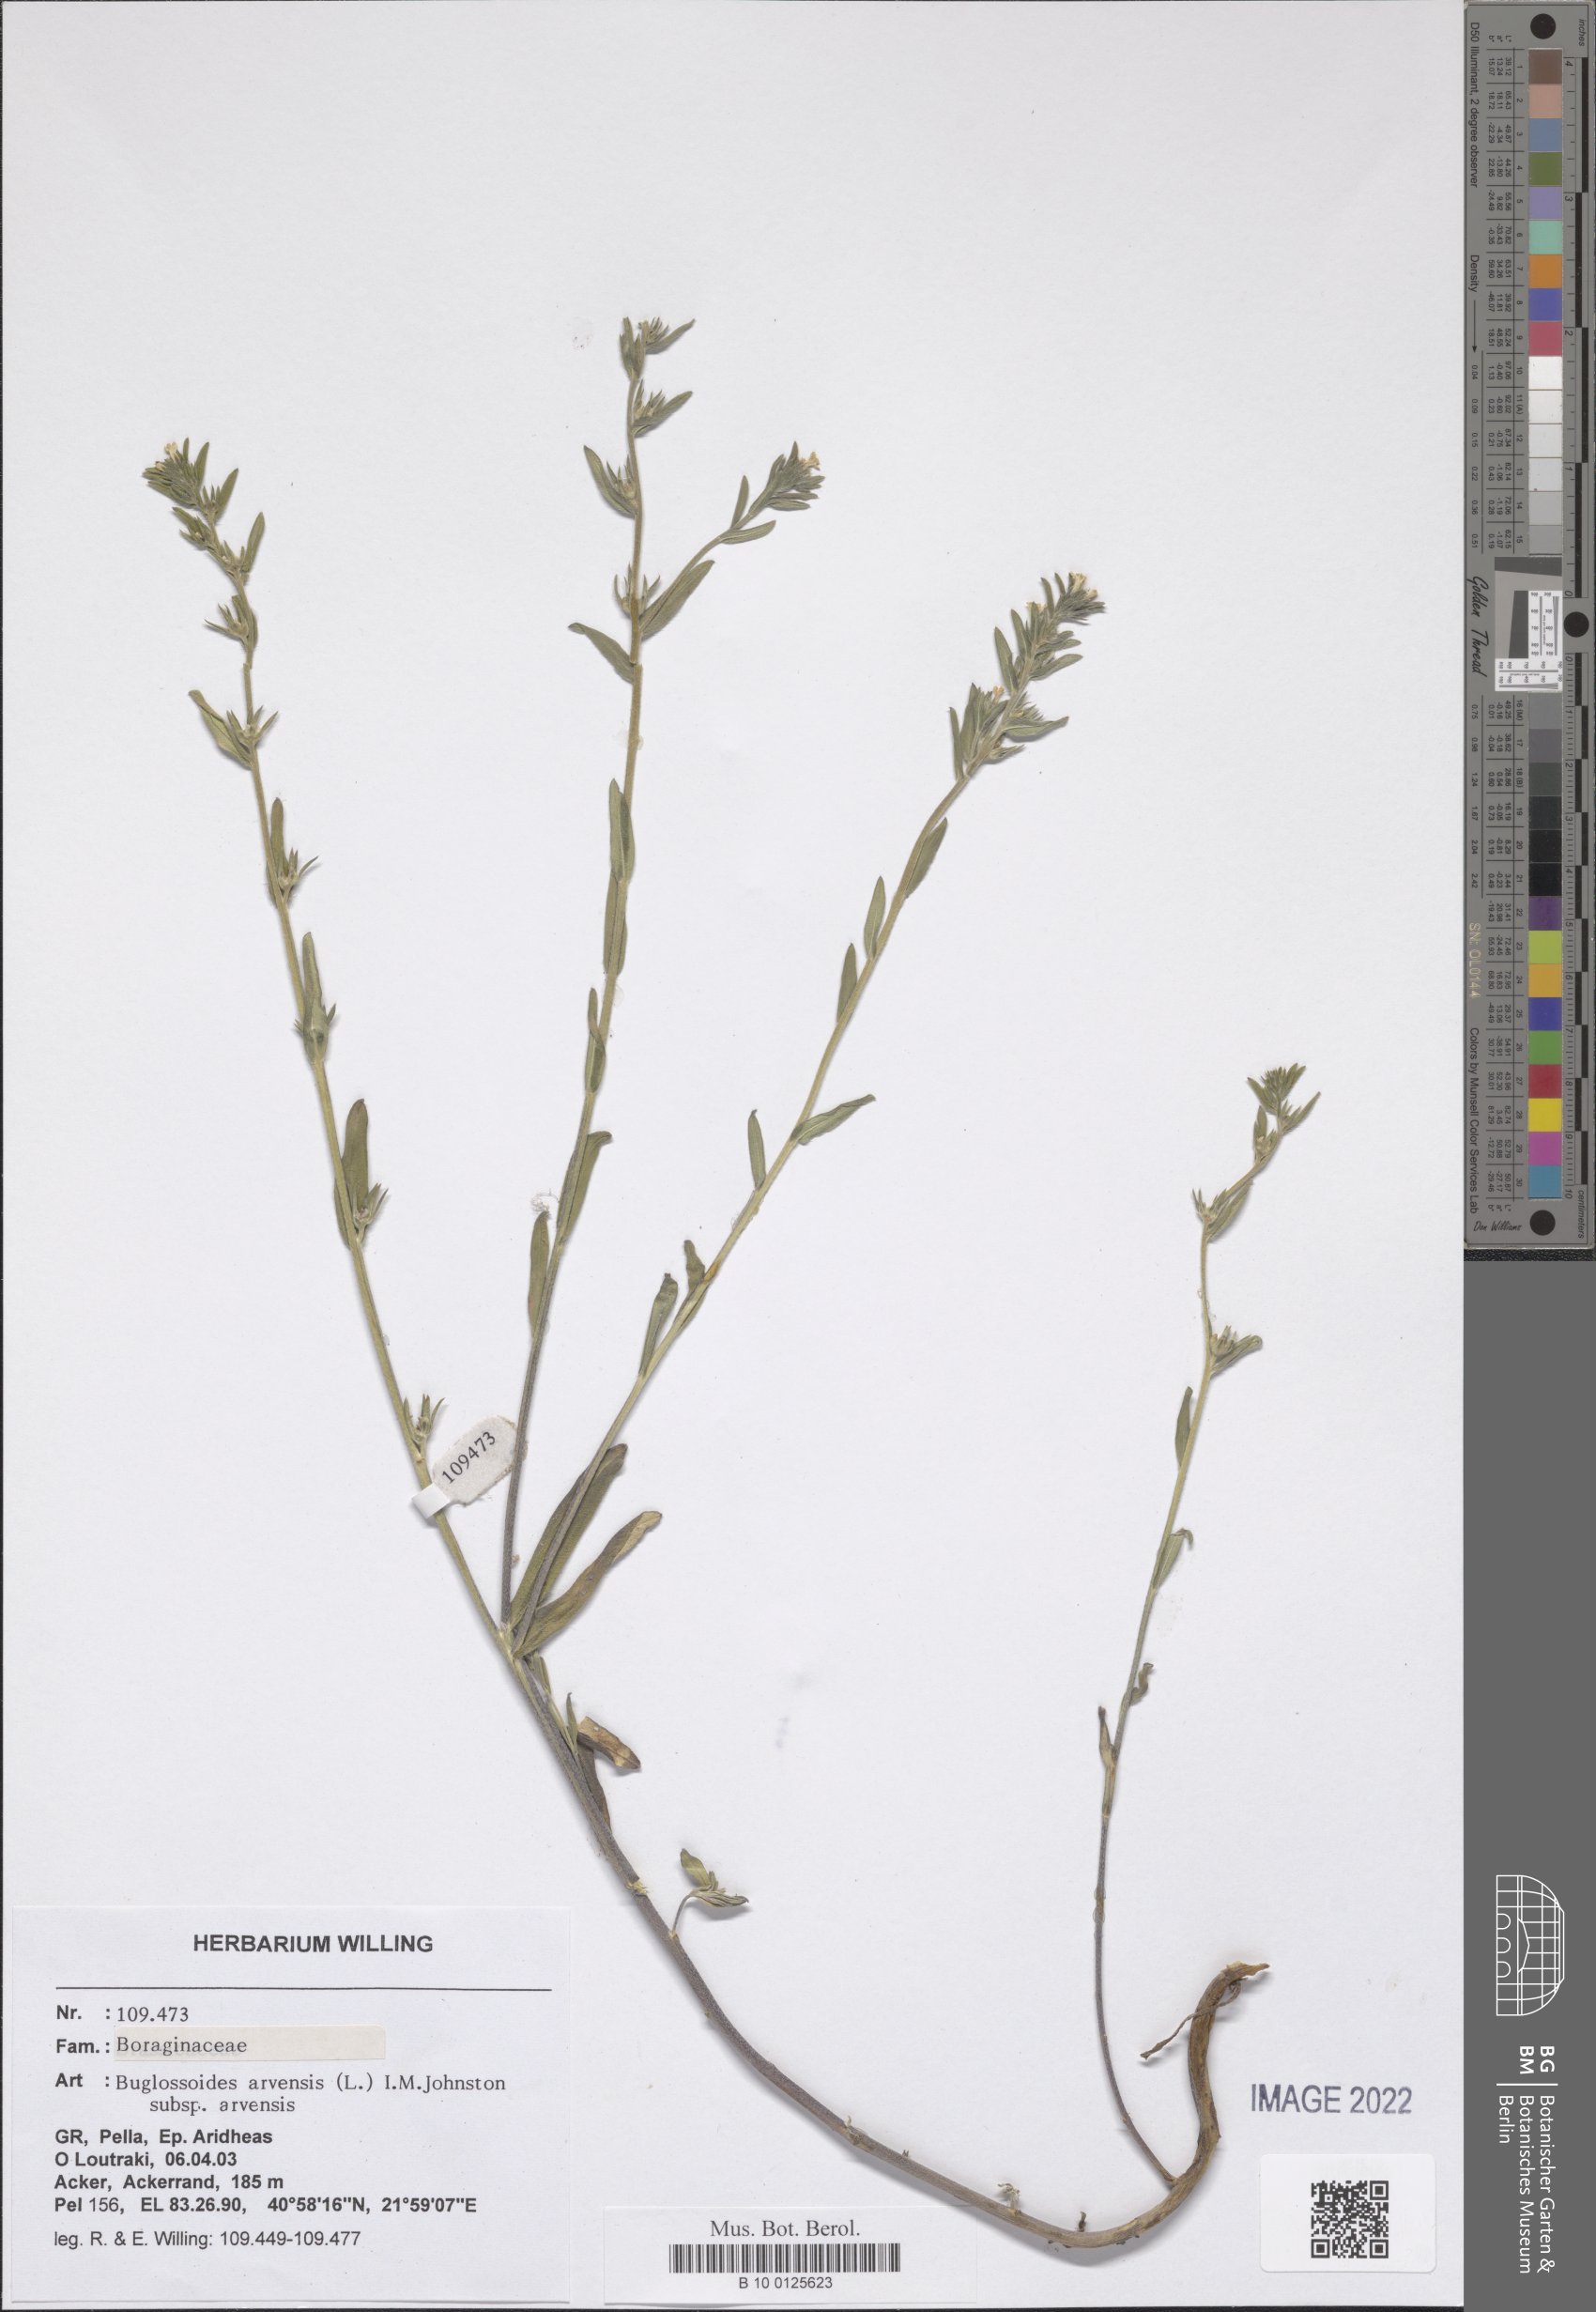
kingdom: Plantae
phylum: Tracheophyta
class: Magnoliopsida
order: Boraginales
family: Boraginaceae
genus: Buglossoides
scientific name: Buglossoides arvensis
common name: Corn gromwell
